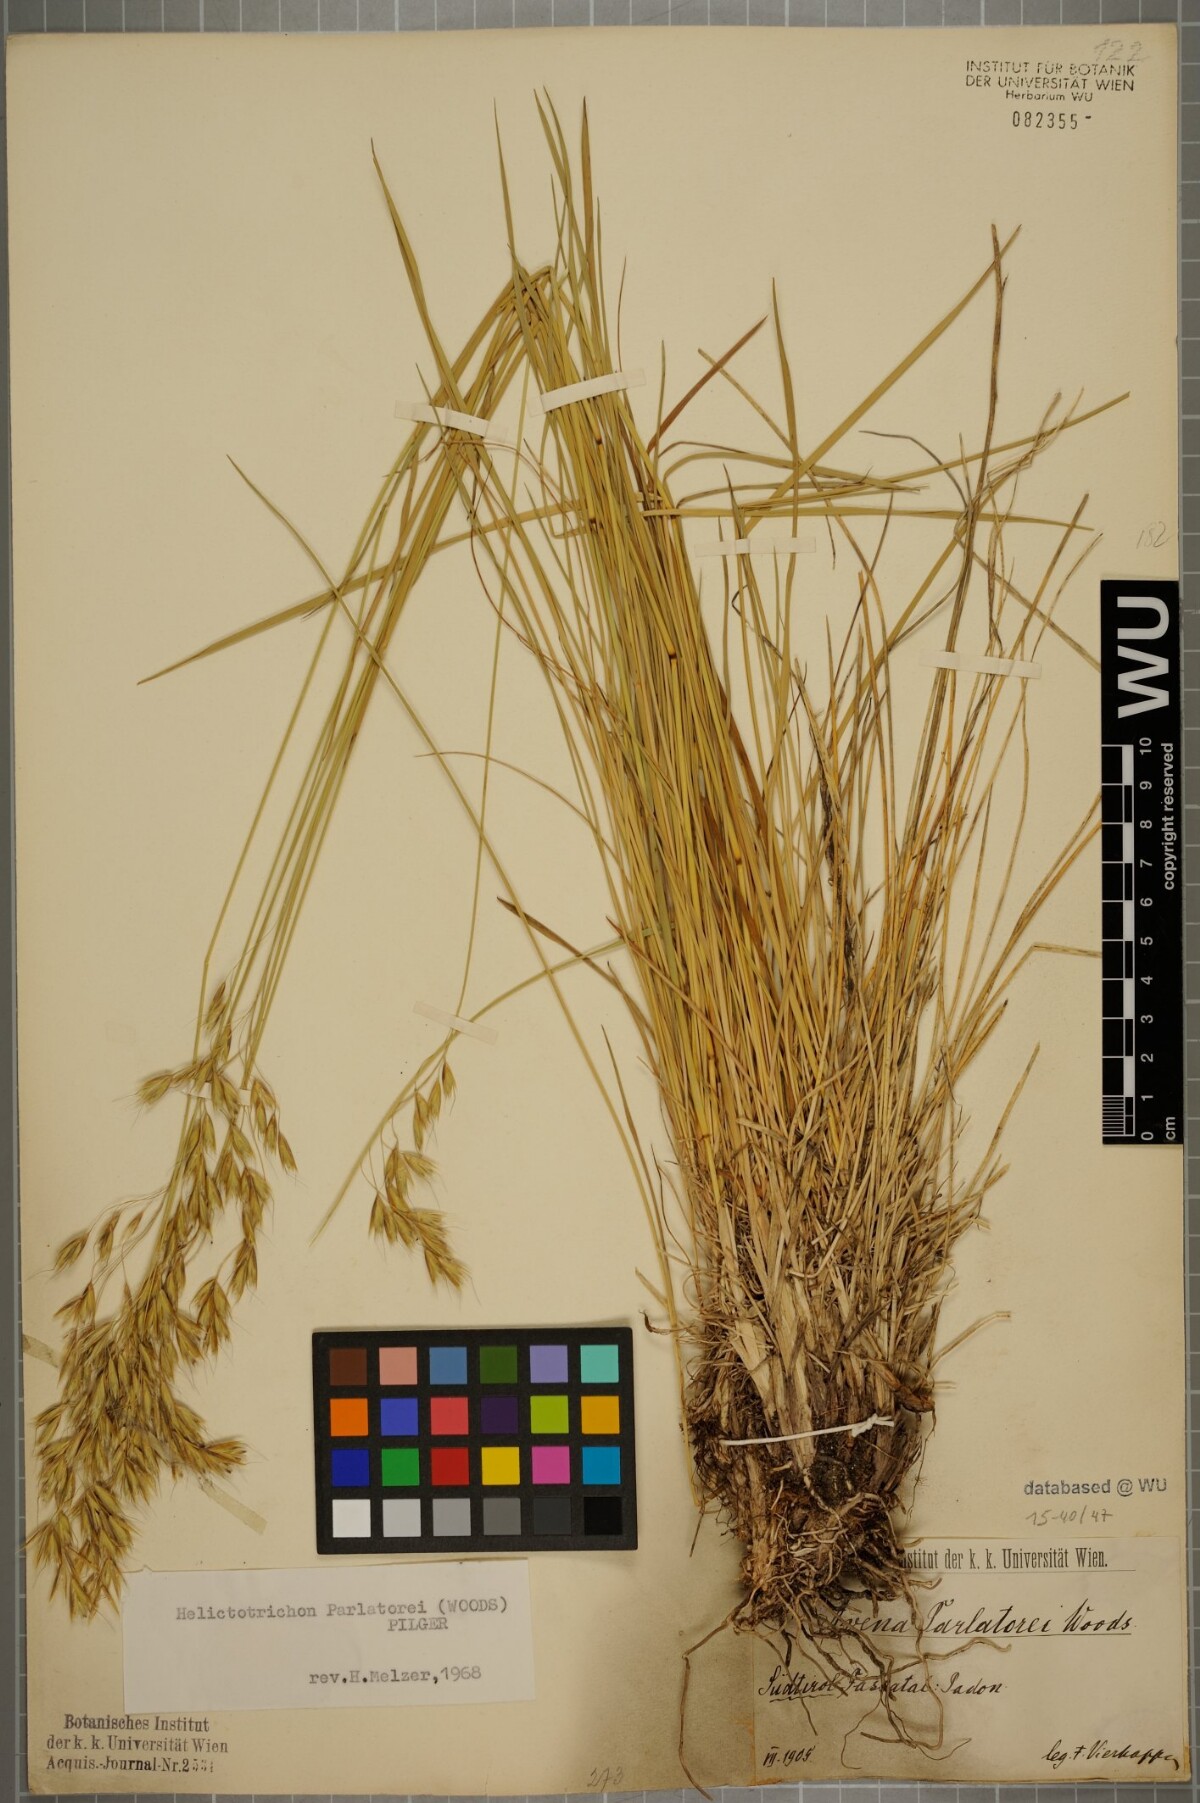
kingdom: Plantae
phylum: Tracheophyta
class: Liliopsida
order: Poales
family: Poaceae
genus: Helictotrichon
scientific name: Helictotrichon parlatorei
